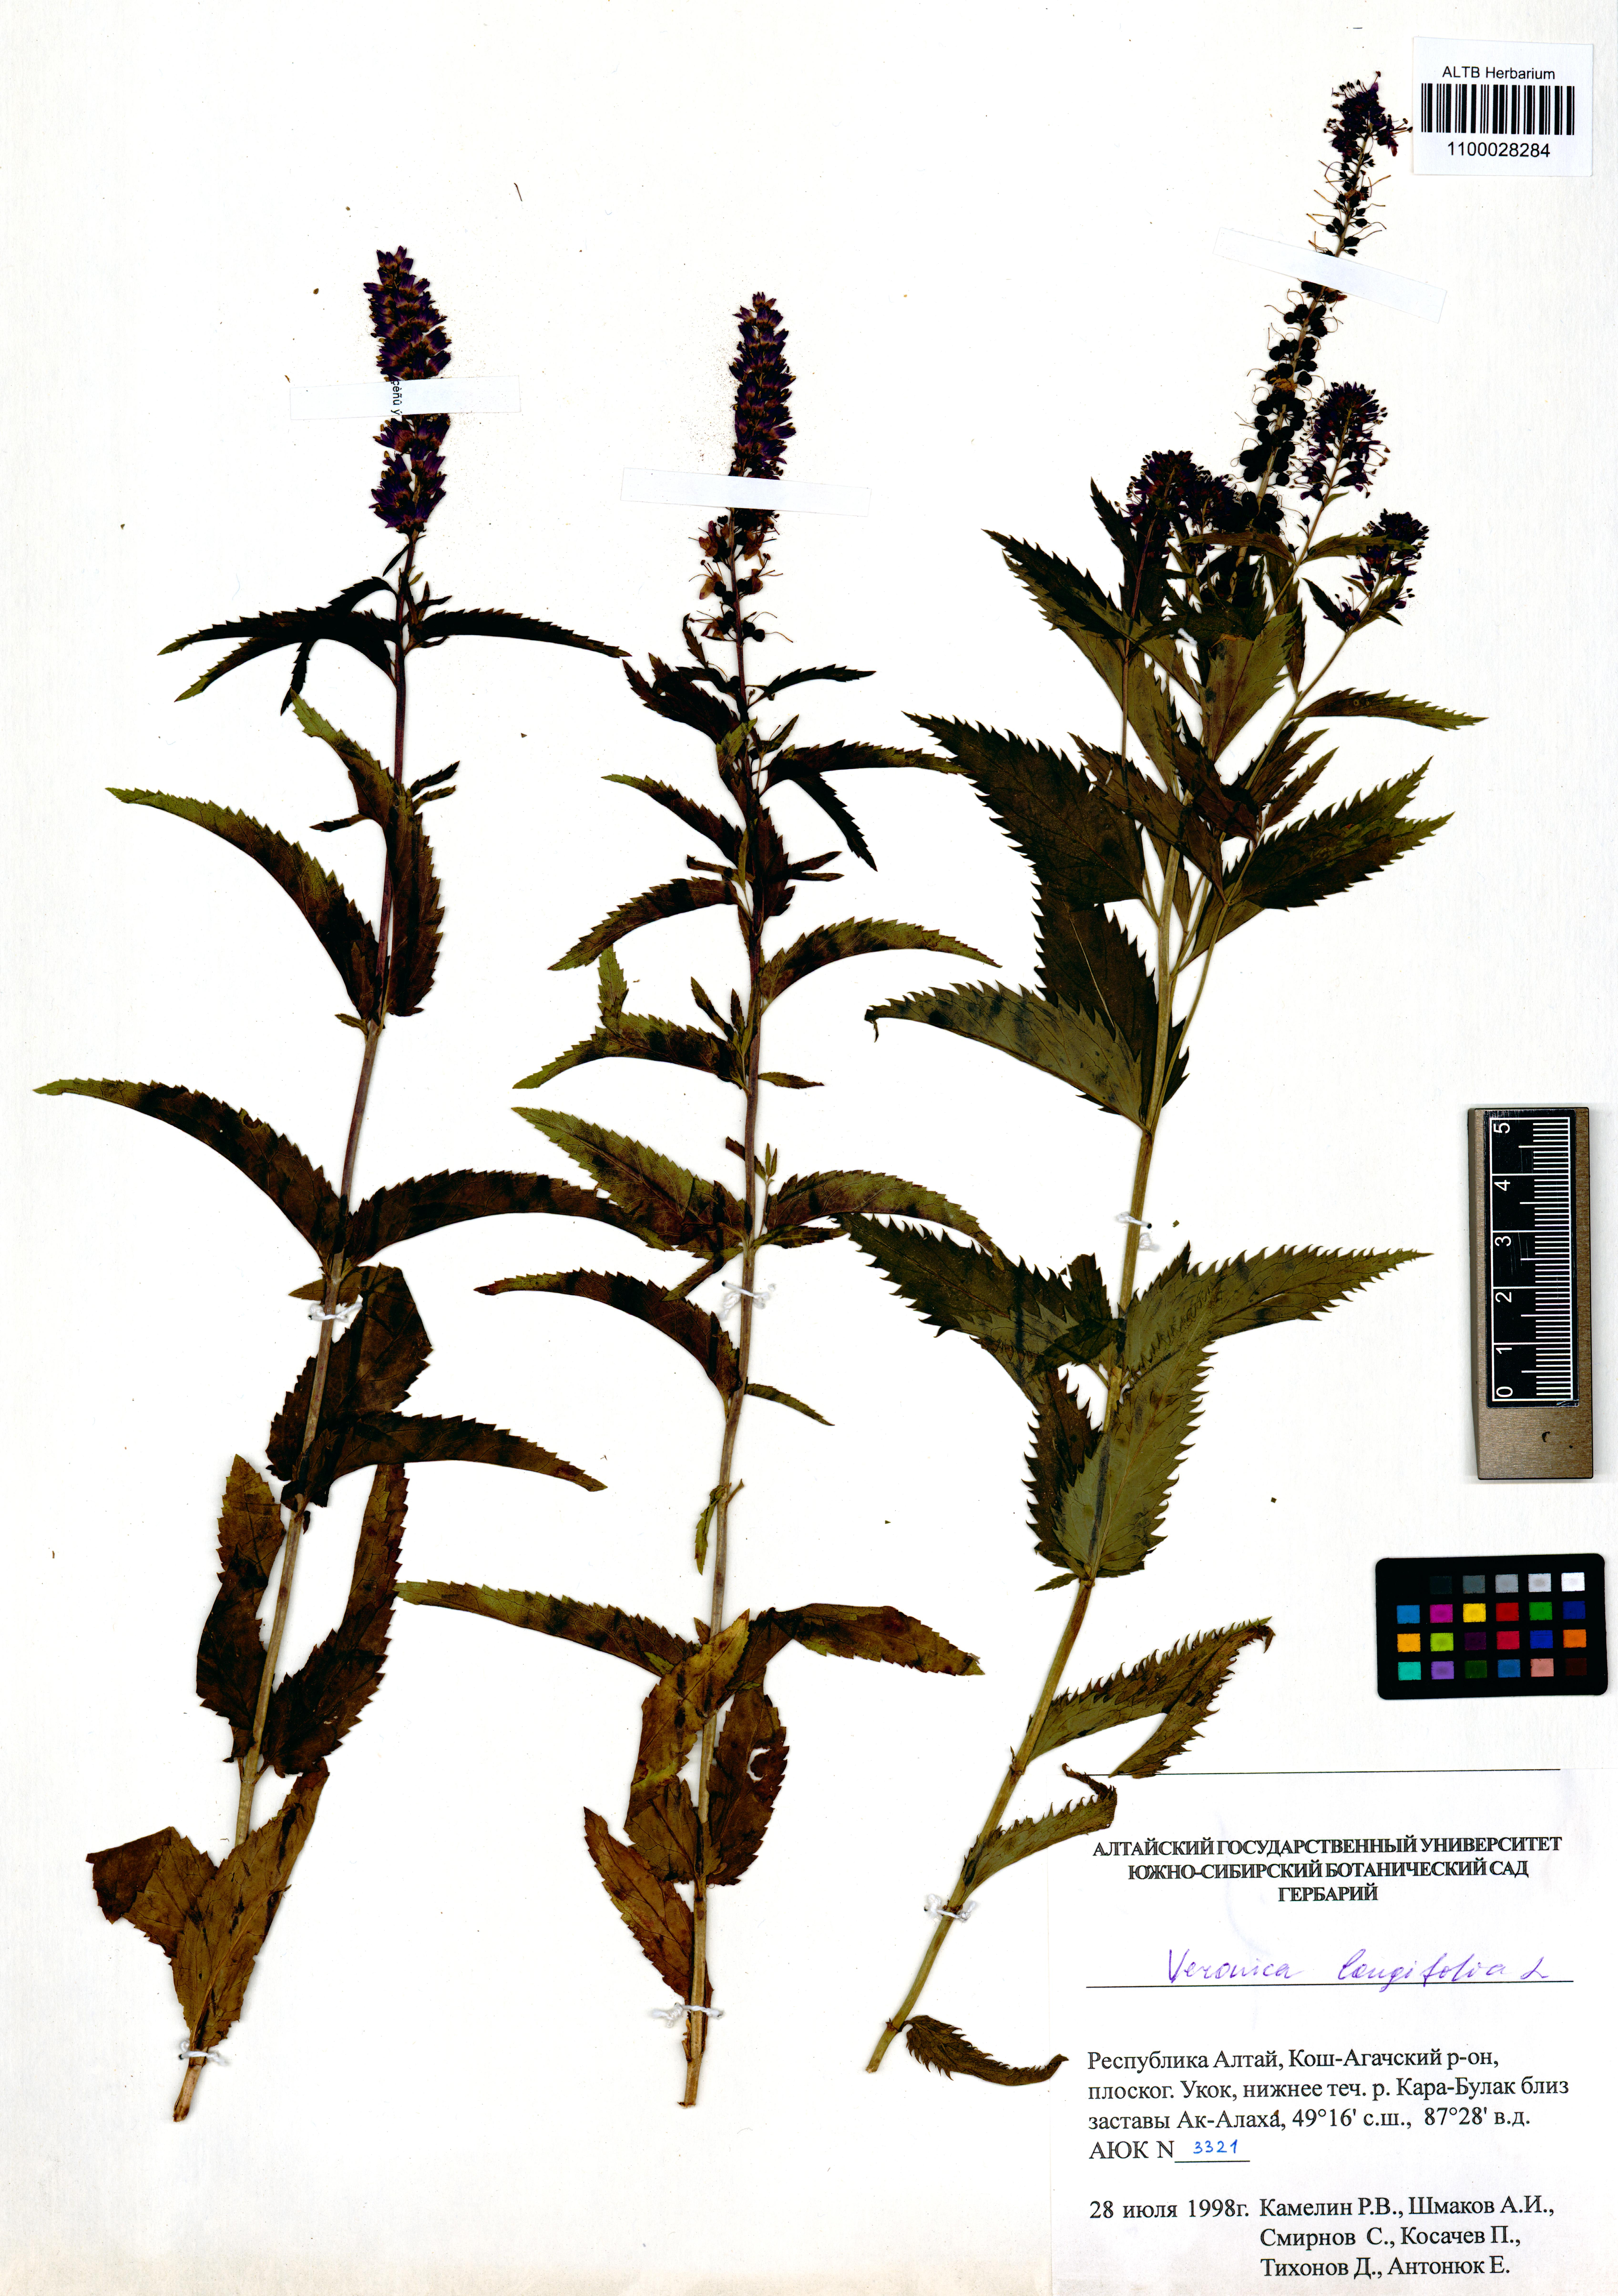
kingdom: Plantae
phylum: Tracheophyta
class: Magnoliopsida
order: Lamiales
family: Plantaginaceae
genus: Veronica
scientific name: Veronica longifolia
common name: Garden speedwell
